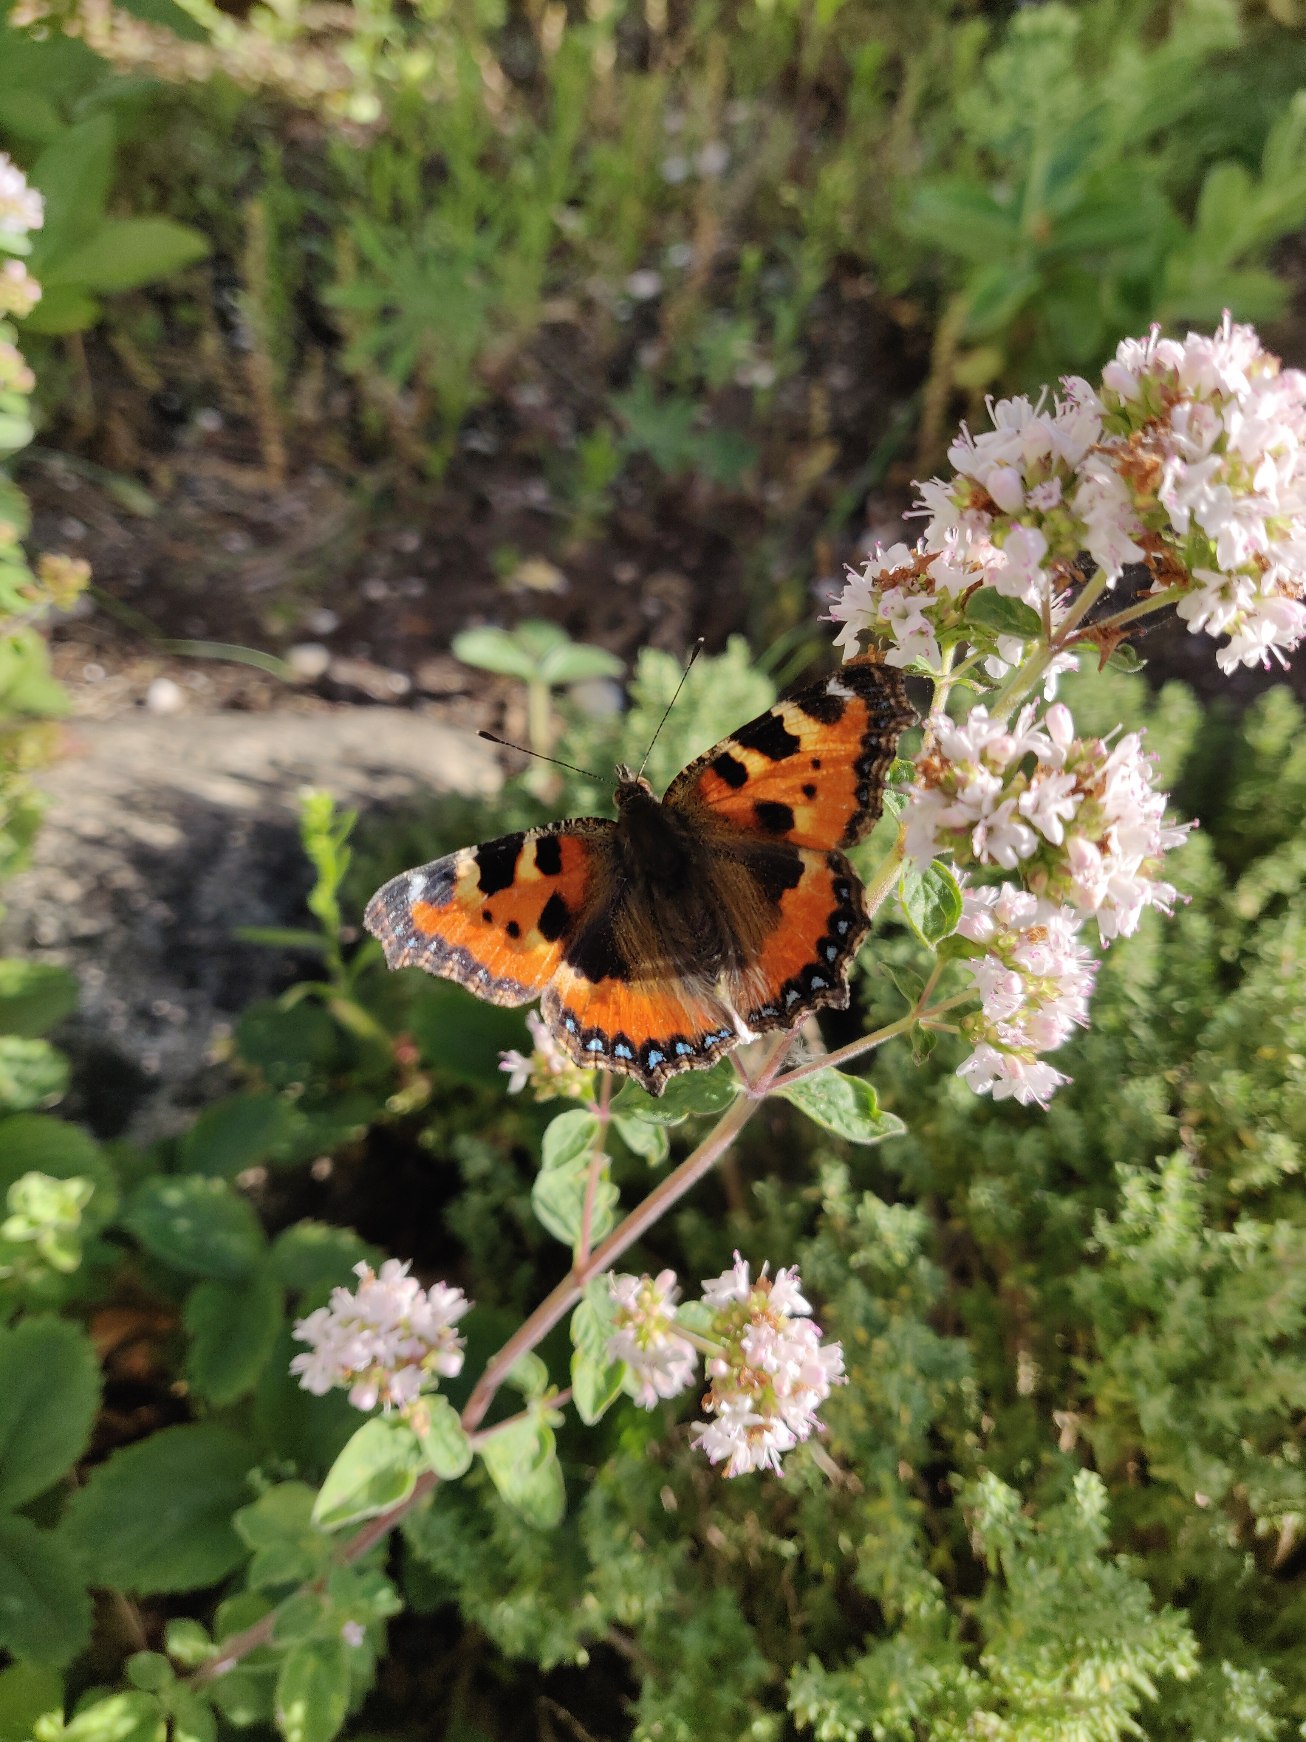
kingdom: Animalia
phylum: Arthropoda
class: Insecta
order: Lepidoptera
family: Nymphalidae
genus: Aglais
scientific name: Aglais urticae
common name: Nældens takvinge
